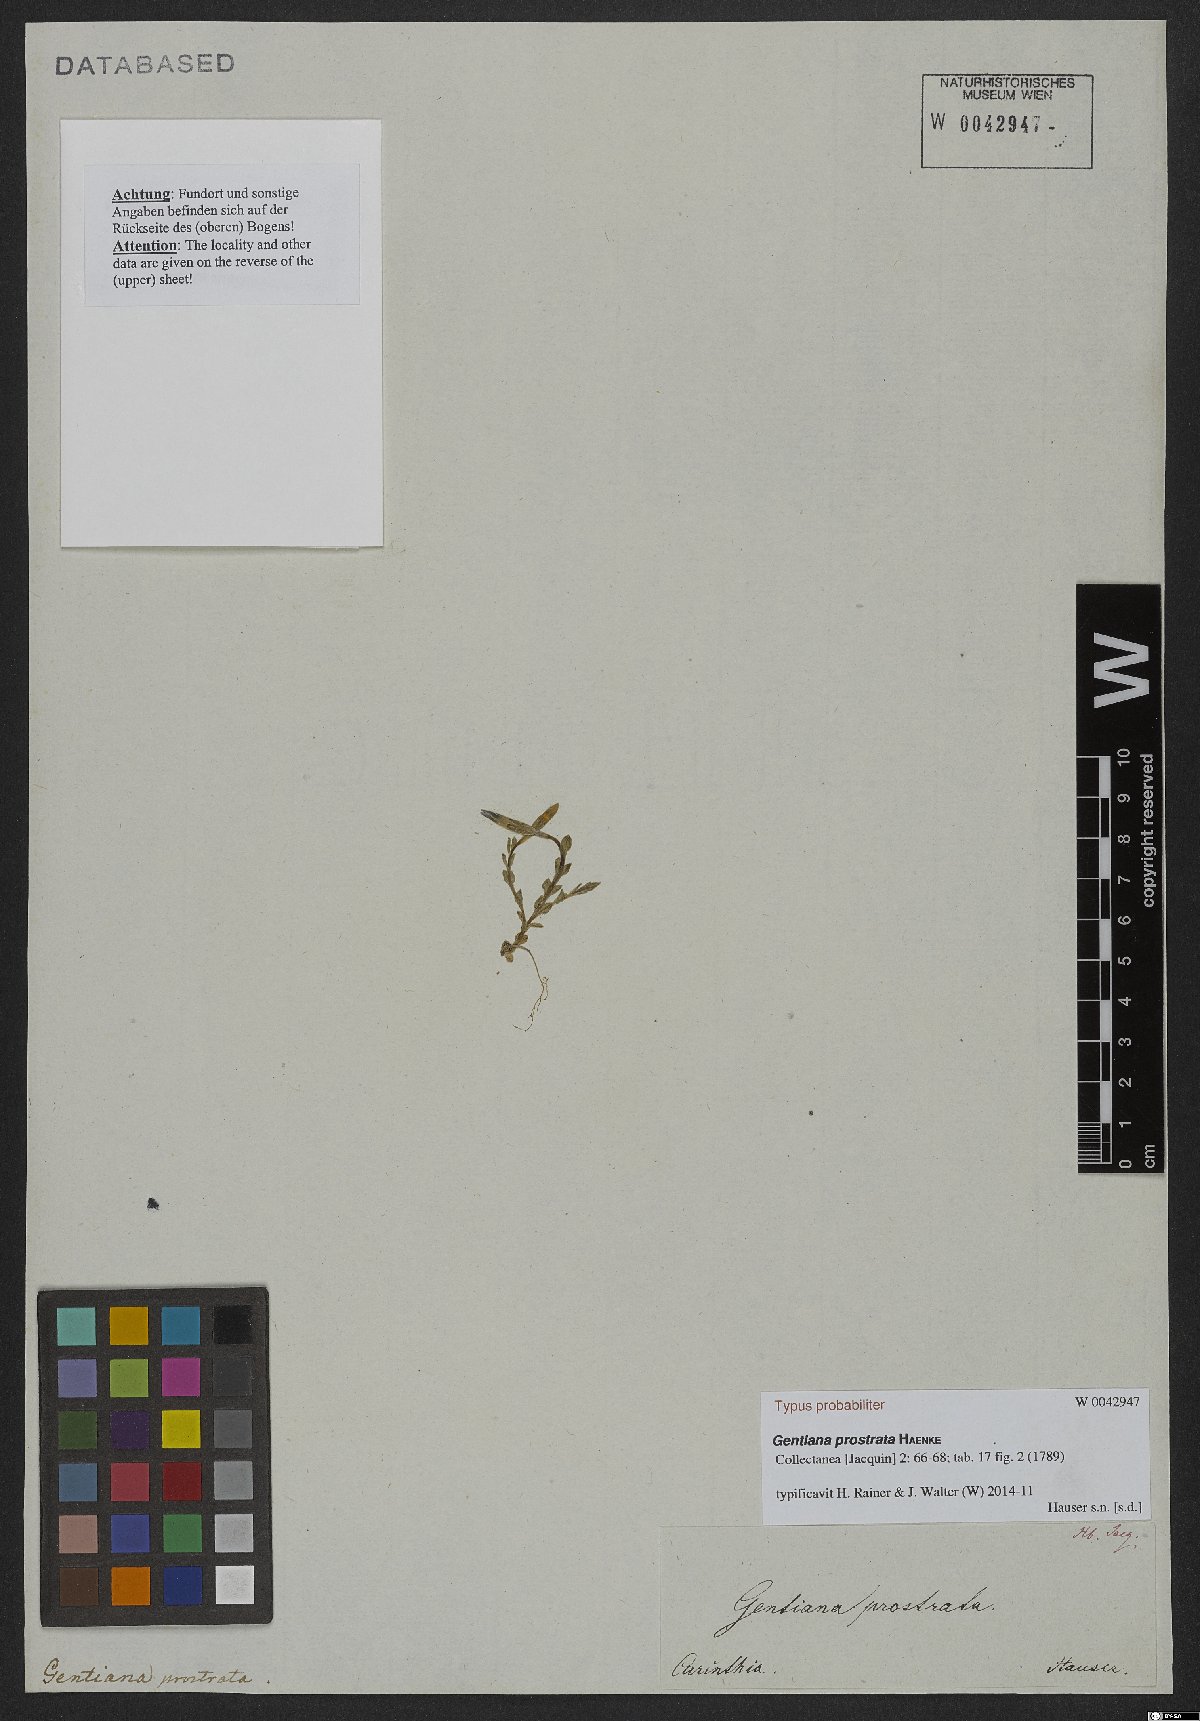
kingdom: Plantae
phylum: Tracheophyta
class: Magnoliopsida
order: Gentianales
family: Gentianaceae
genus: Gentiana
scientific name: Gentiana prostrata
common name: Moss gentian
